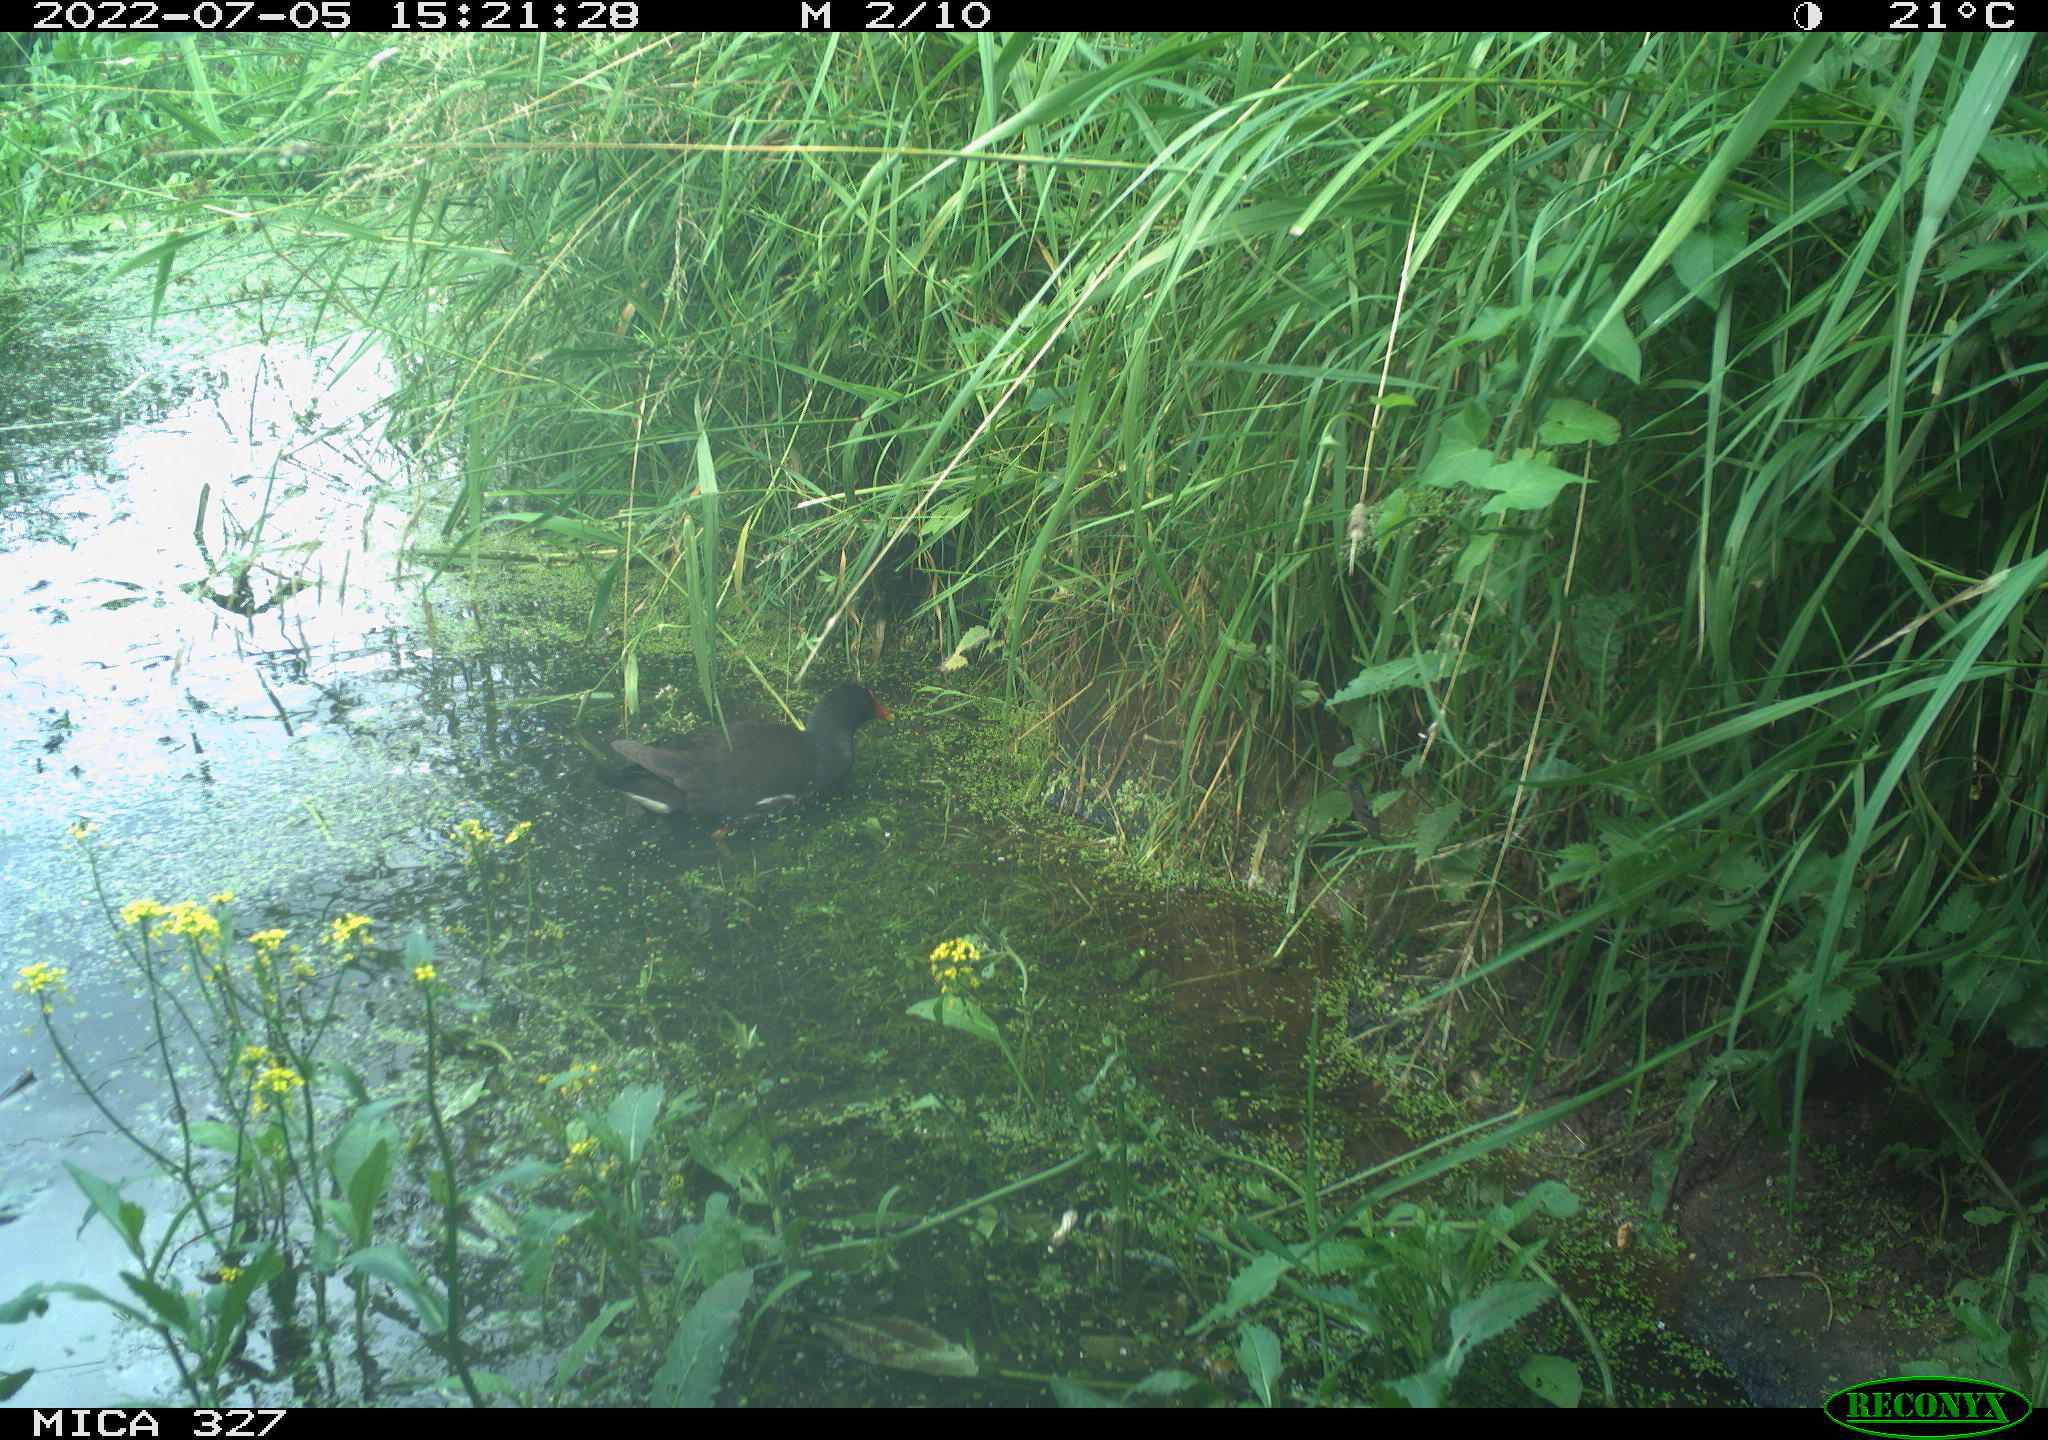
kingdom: Animalia
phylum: Chordata
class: Aves
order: Gruiformes
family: Rallidae
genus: Gallinula
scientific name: Gallinula chloropus
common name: Common moorhen
